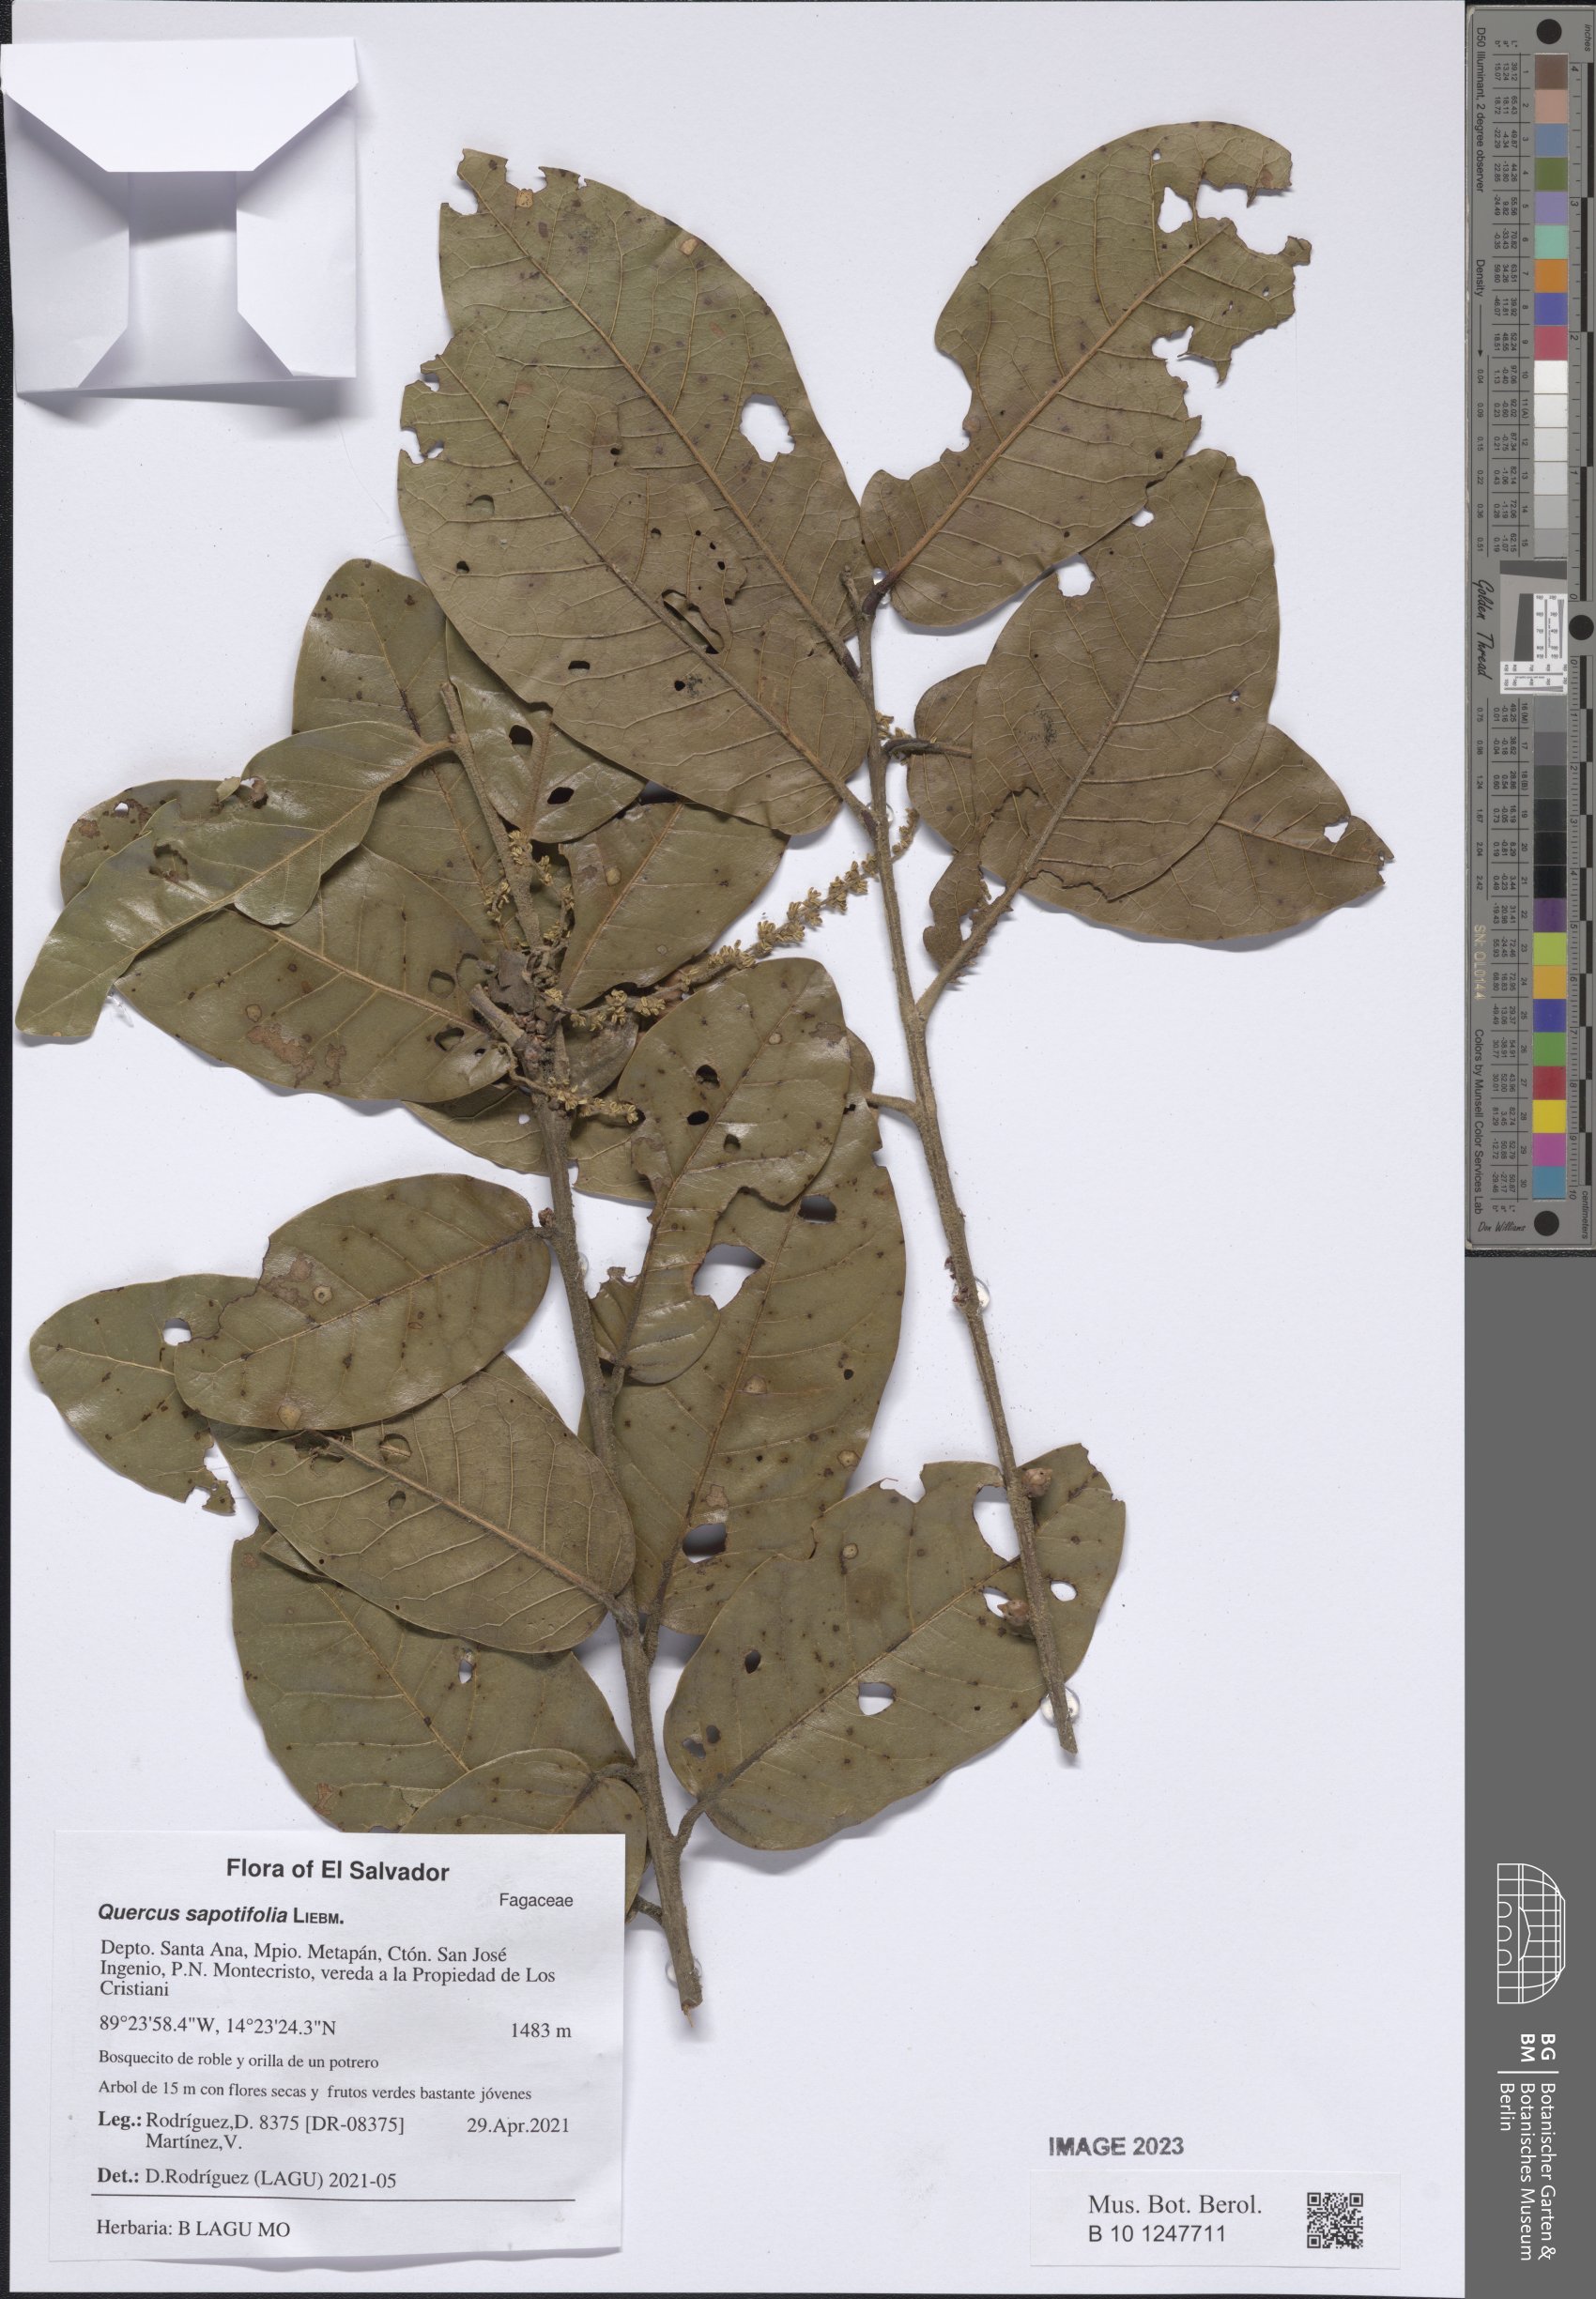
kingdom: Plantae
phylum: Tracheophyta
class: Magnoliopsida
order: Fagales
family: Fagaceae
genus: Quercus
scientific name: Quercus sapotifolia
